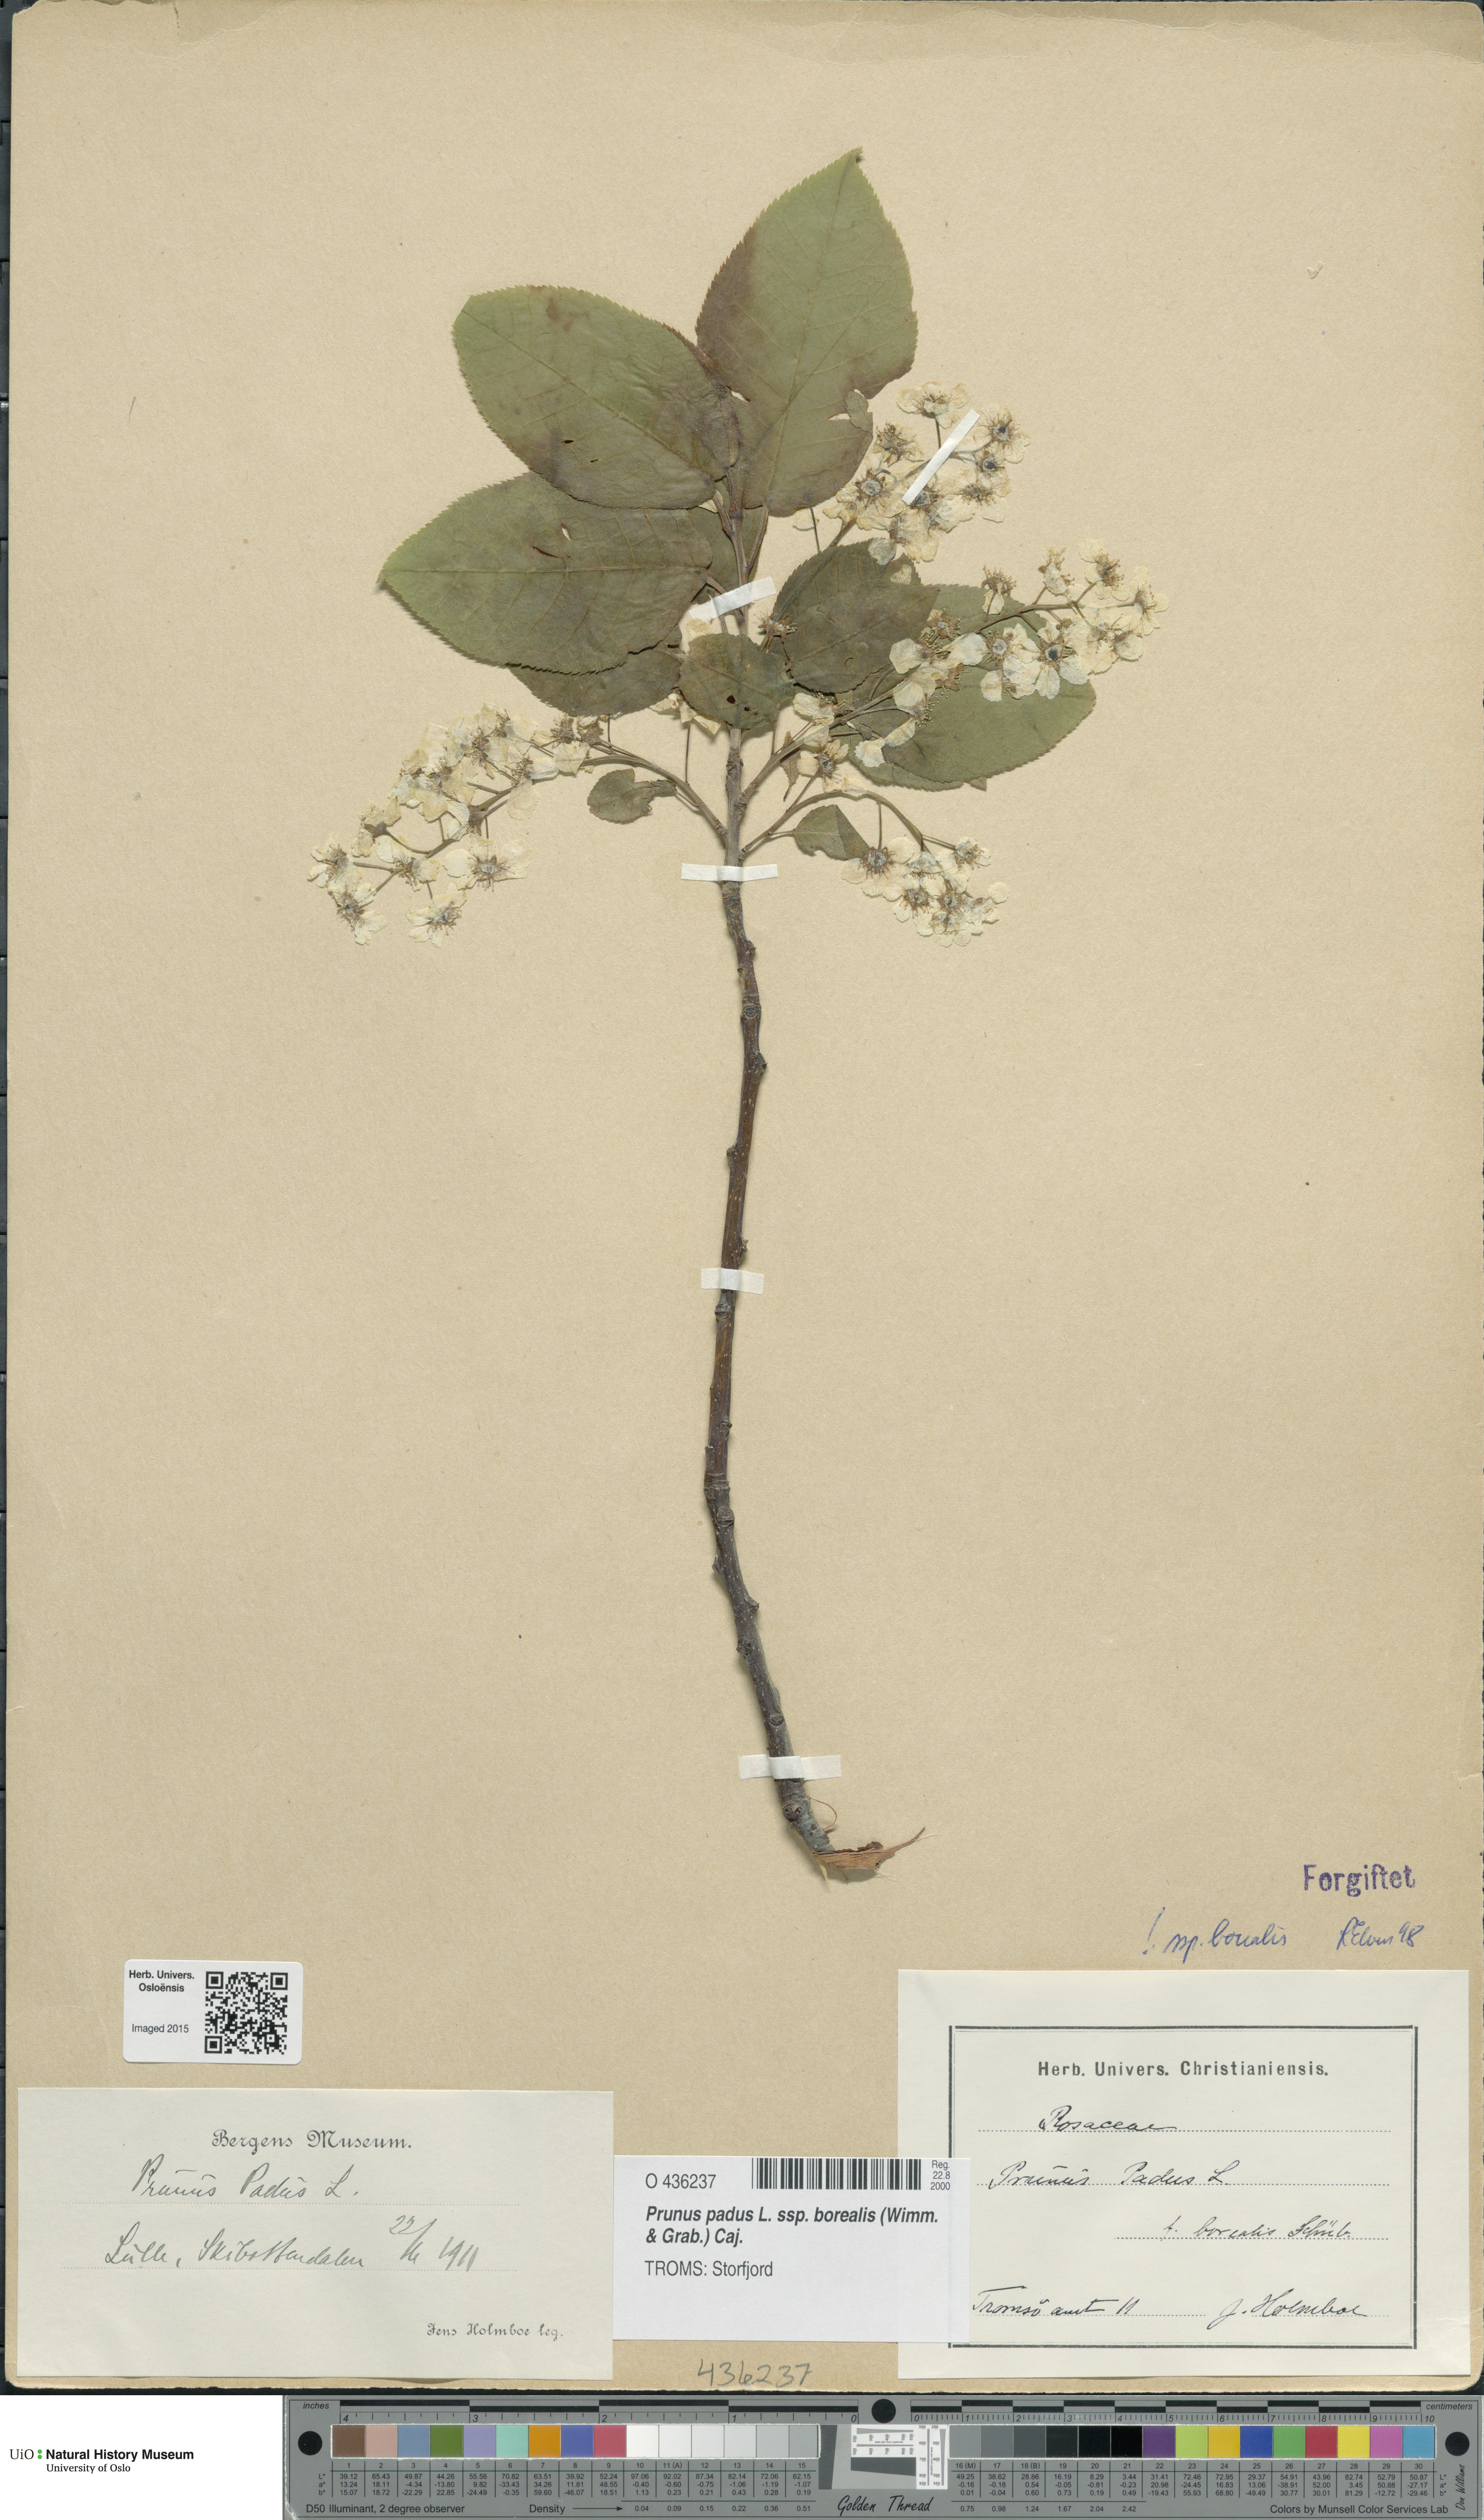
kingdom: Plantae
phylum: Tracheophyta
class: Magnoliopsida
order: Rosales
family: Rosaceae
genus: Prunus
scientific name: Prunus padus
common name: Bird cherry
